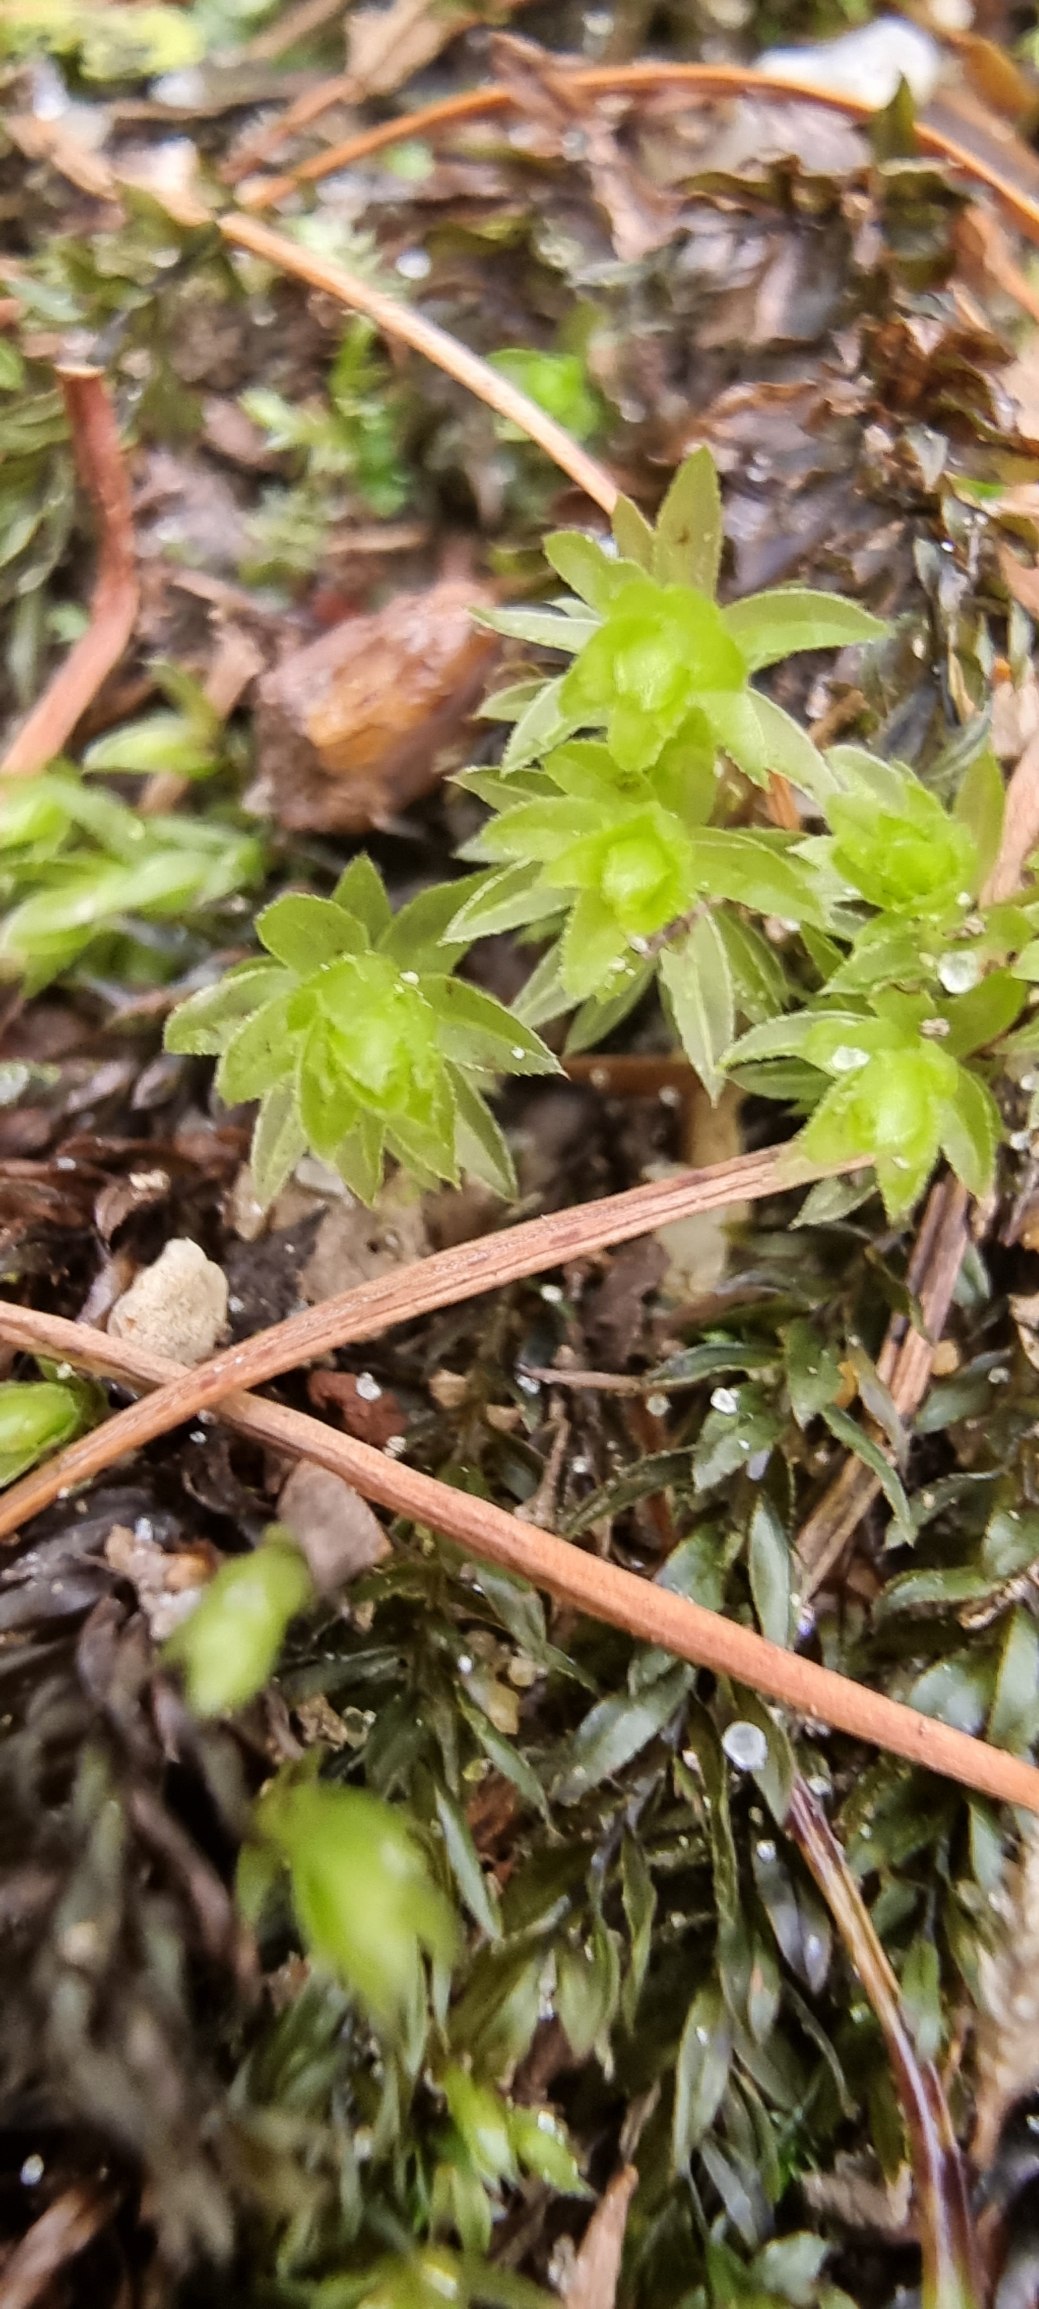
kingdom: Plantae
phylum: Bryophyta
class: Bryopsida
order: Bryales
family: Mniaceae
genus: Mnium
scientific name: Mnium hornum
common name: Brunfiltet stjernemos
